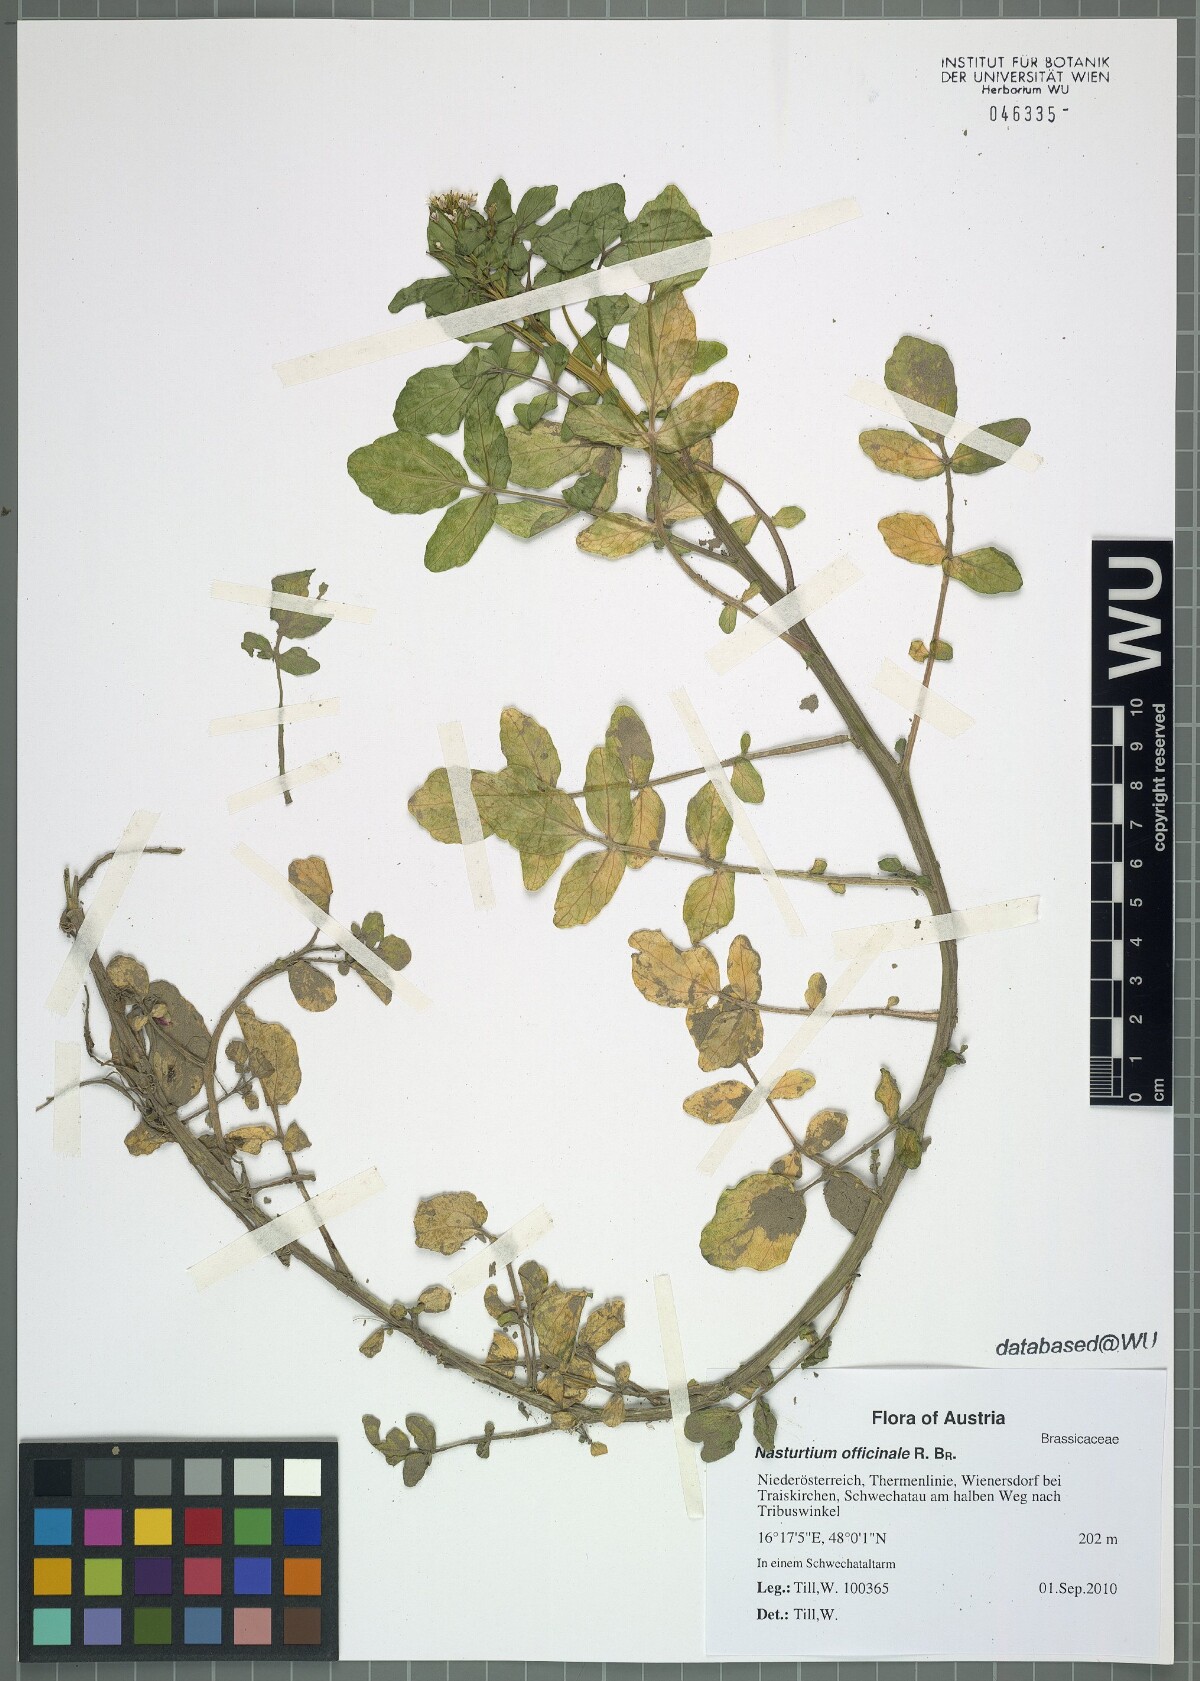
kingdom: Plantae
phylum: Tracheophyta
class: Magnoliopsida
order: Brassicales
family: Brassicaceae
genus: Nasturtium
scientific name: Nasturtium officinale
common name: Watercress
